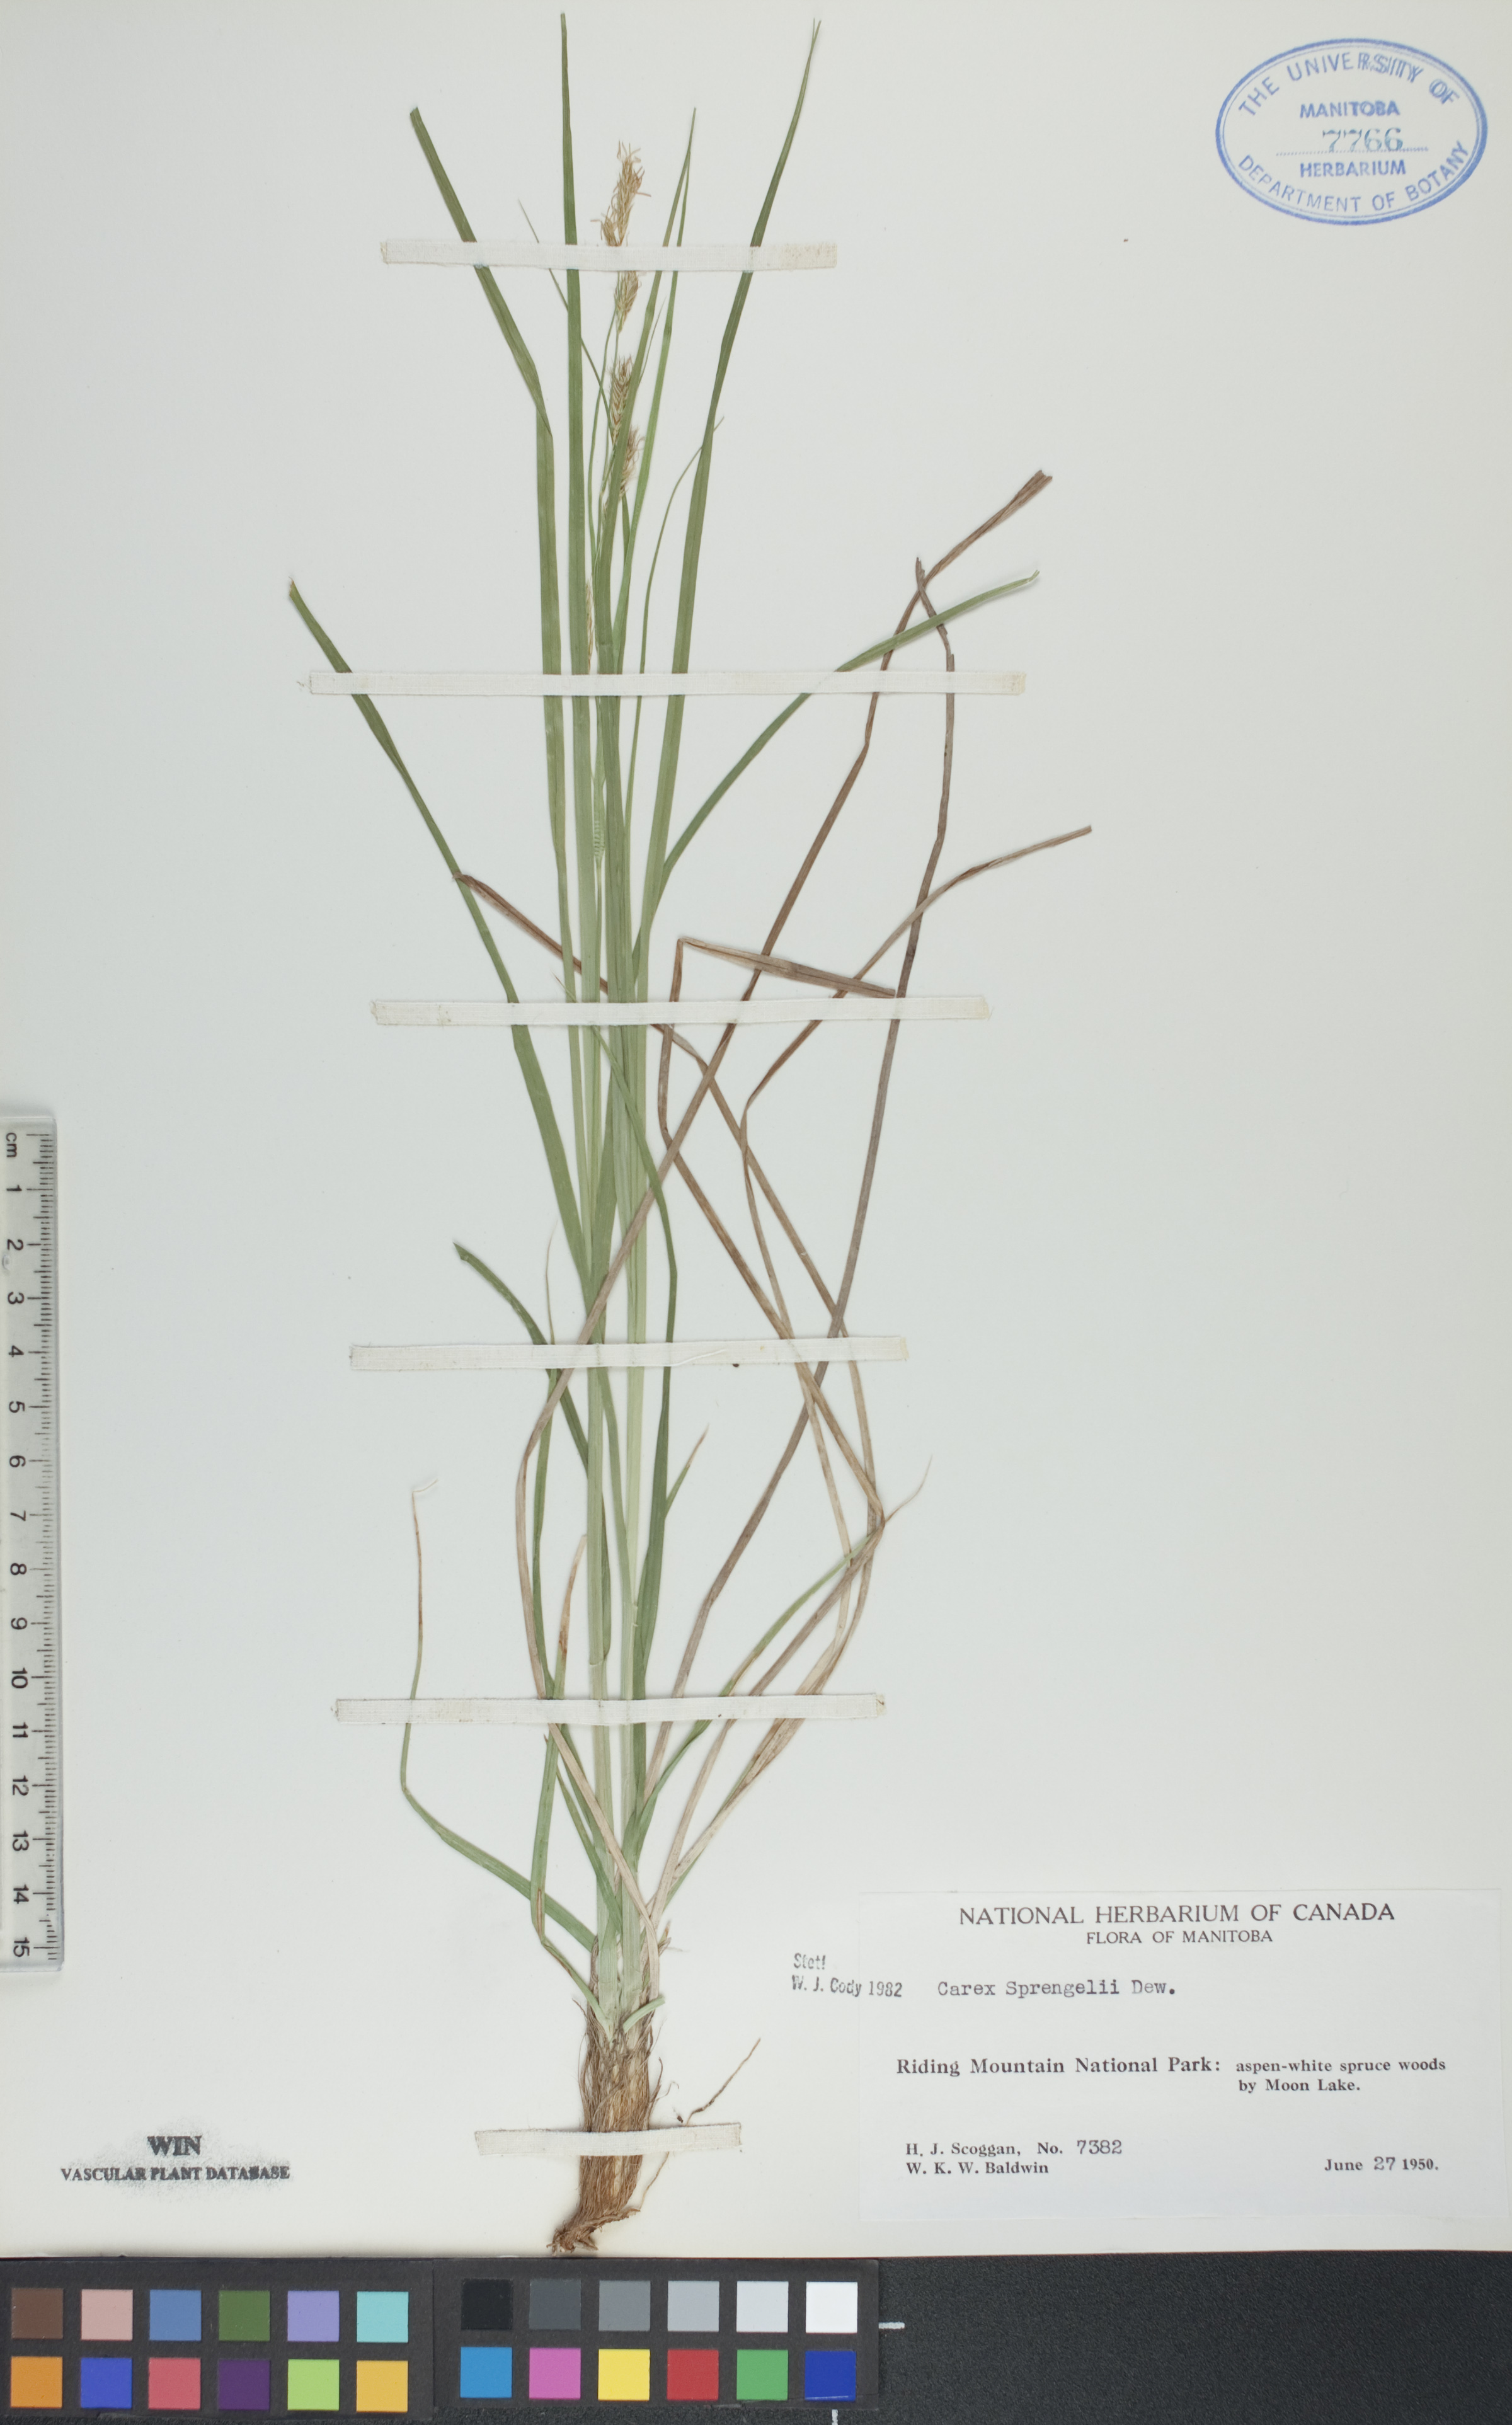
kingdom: Plantae
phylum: Tracheophyta
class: Liliopsida
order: Poales
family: Cyperaceae
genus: Carex
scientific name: Carex sprengelii
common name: Long-beaked sedge
